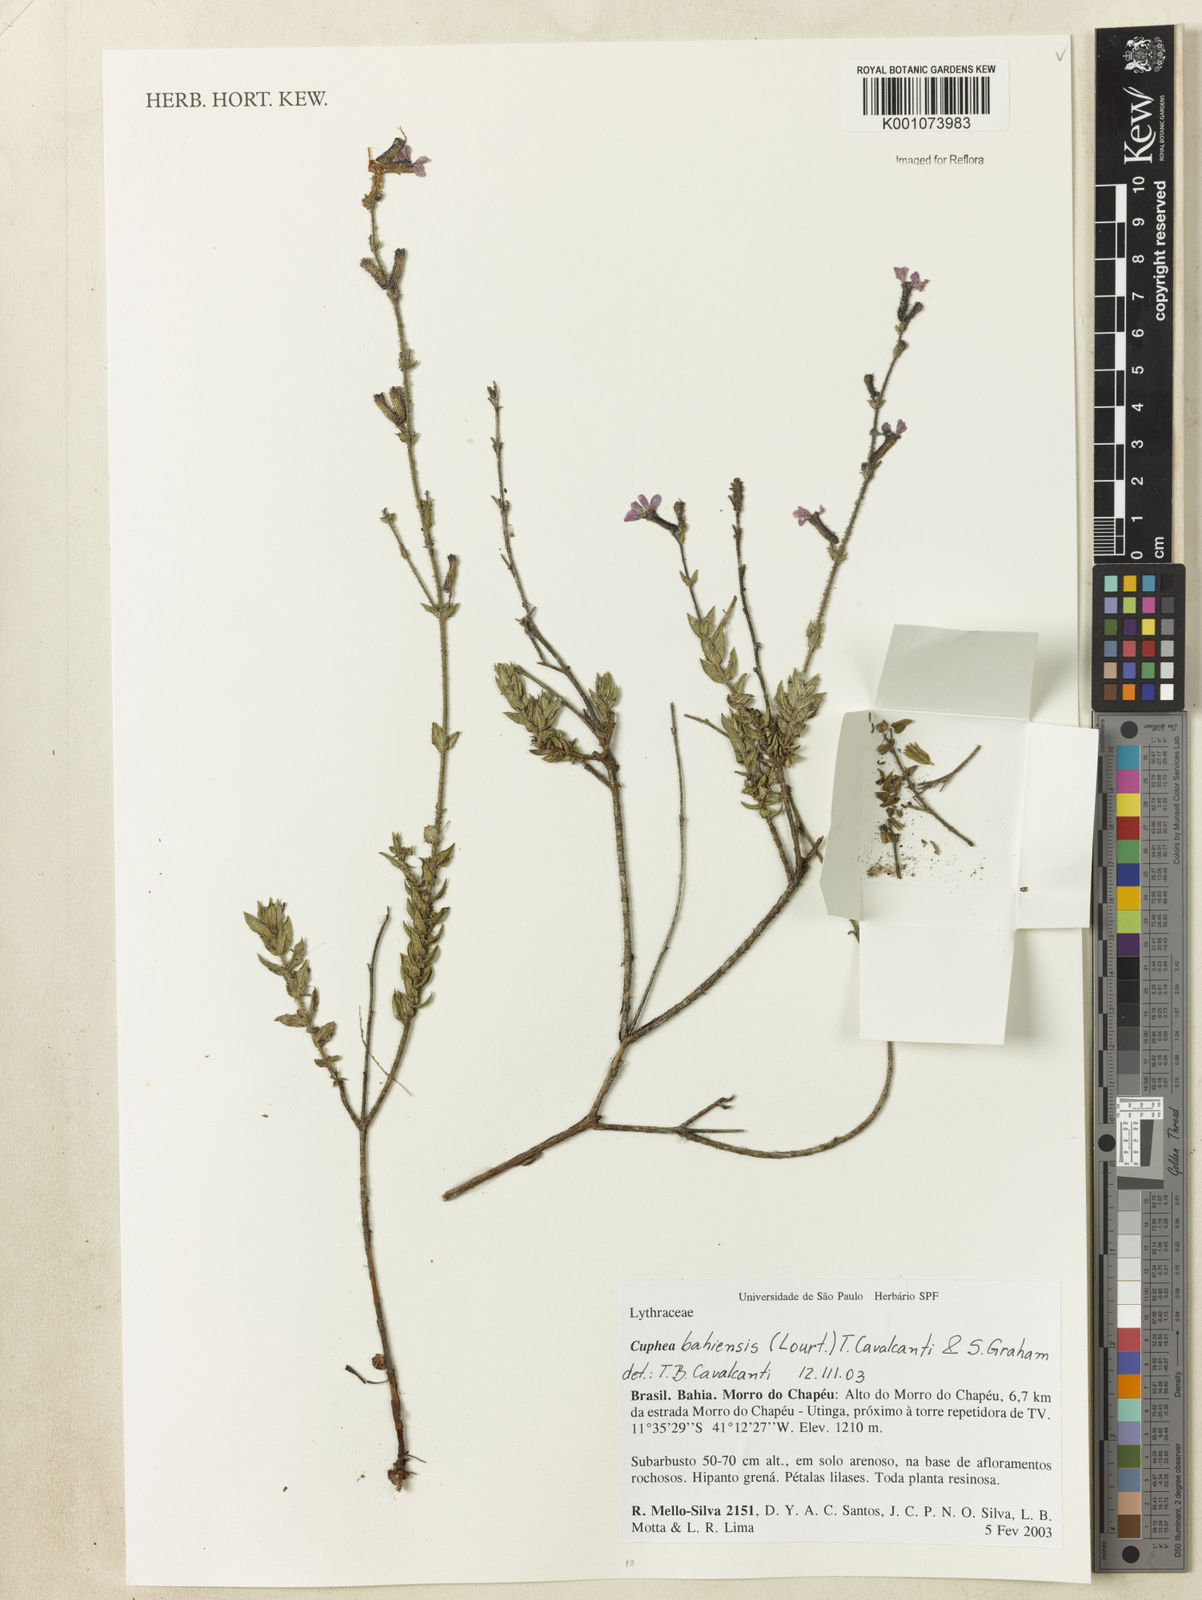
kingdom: Plantae
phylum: Tracheophyta
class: Magnoliopsida
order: Myrtales
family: Lythraceae
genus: Cuphea
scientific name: Cuphea bahiensis
